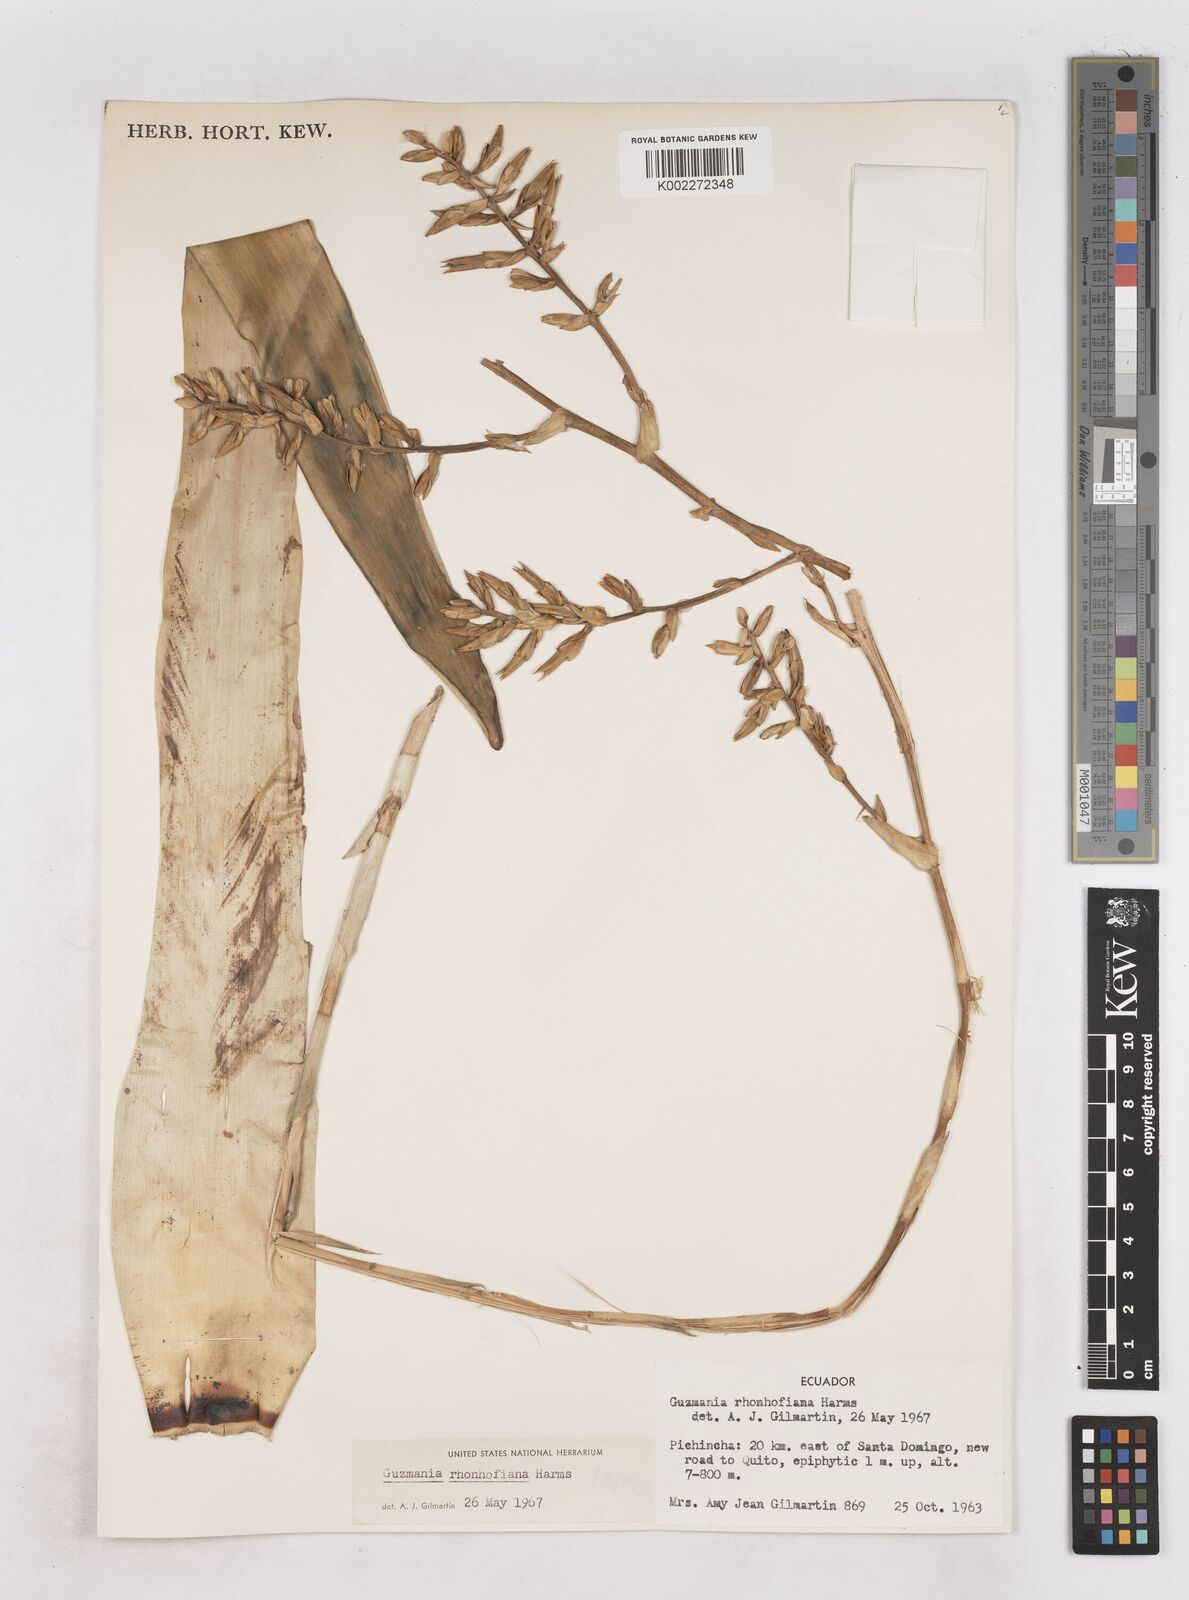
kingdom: Plantae
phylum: Tracheophyta
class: Liliopsida
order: Poales
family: Bromeliaceae
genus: Guzmania
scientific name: Guzmania rhonhofiana
